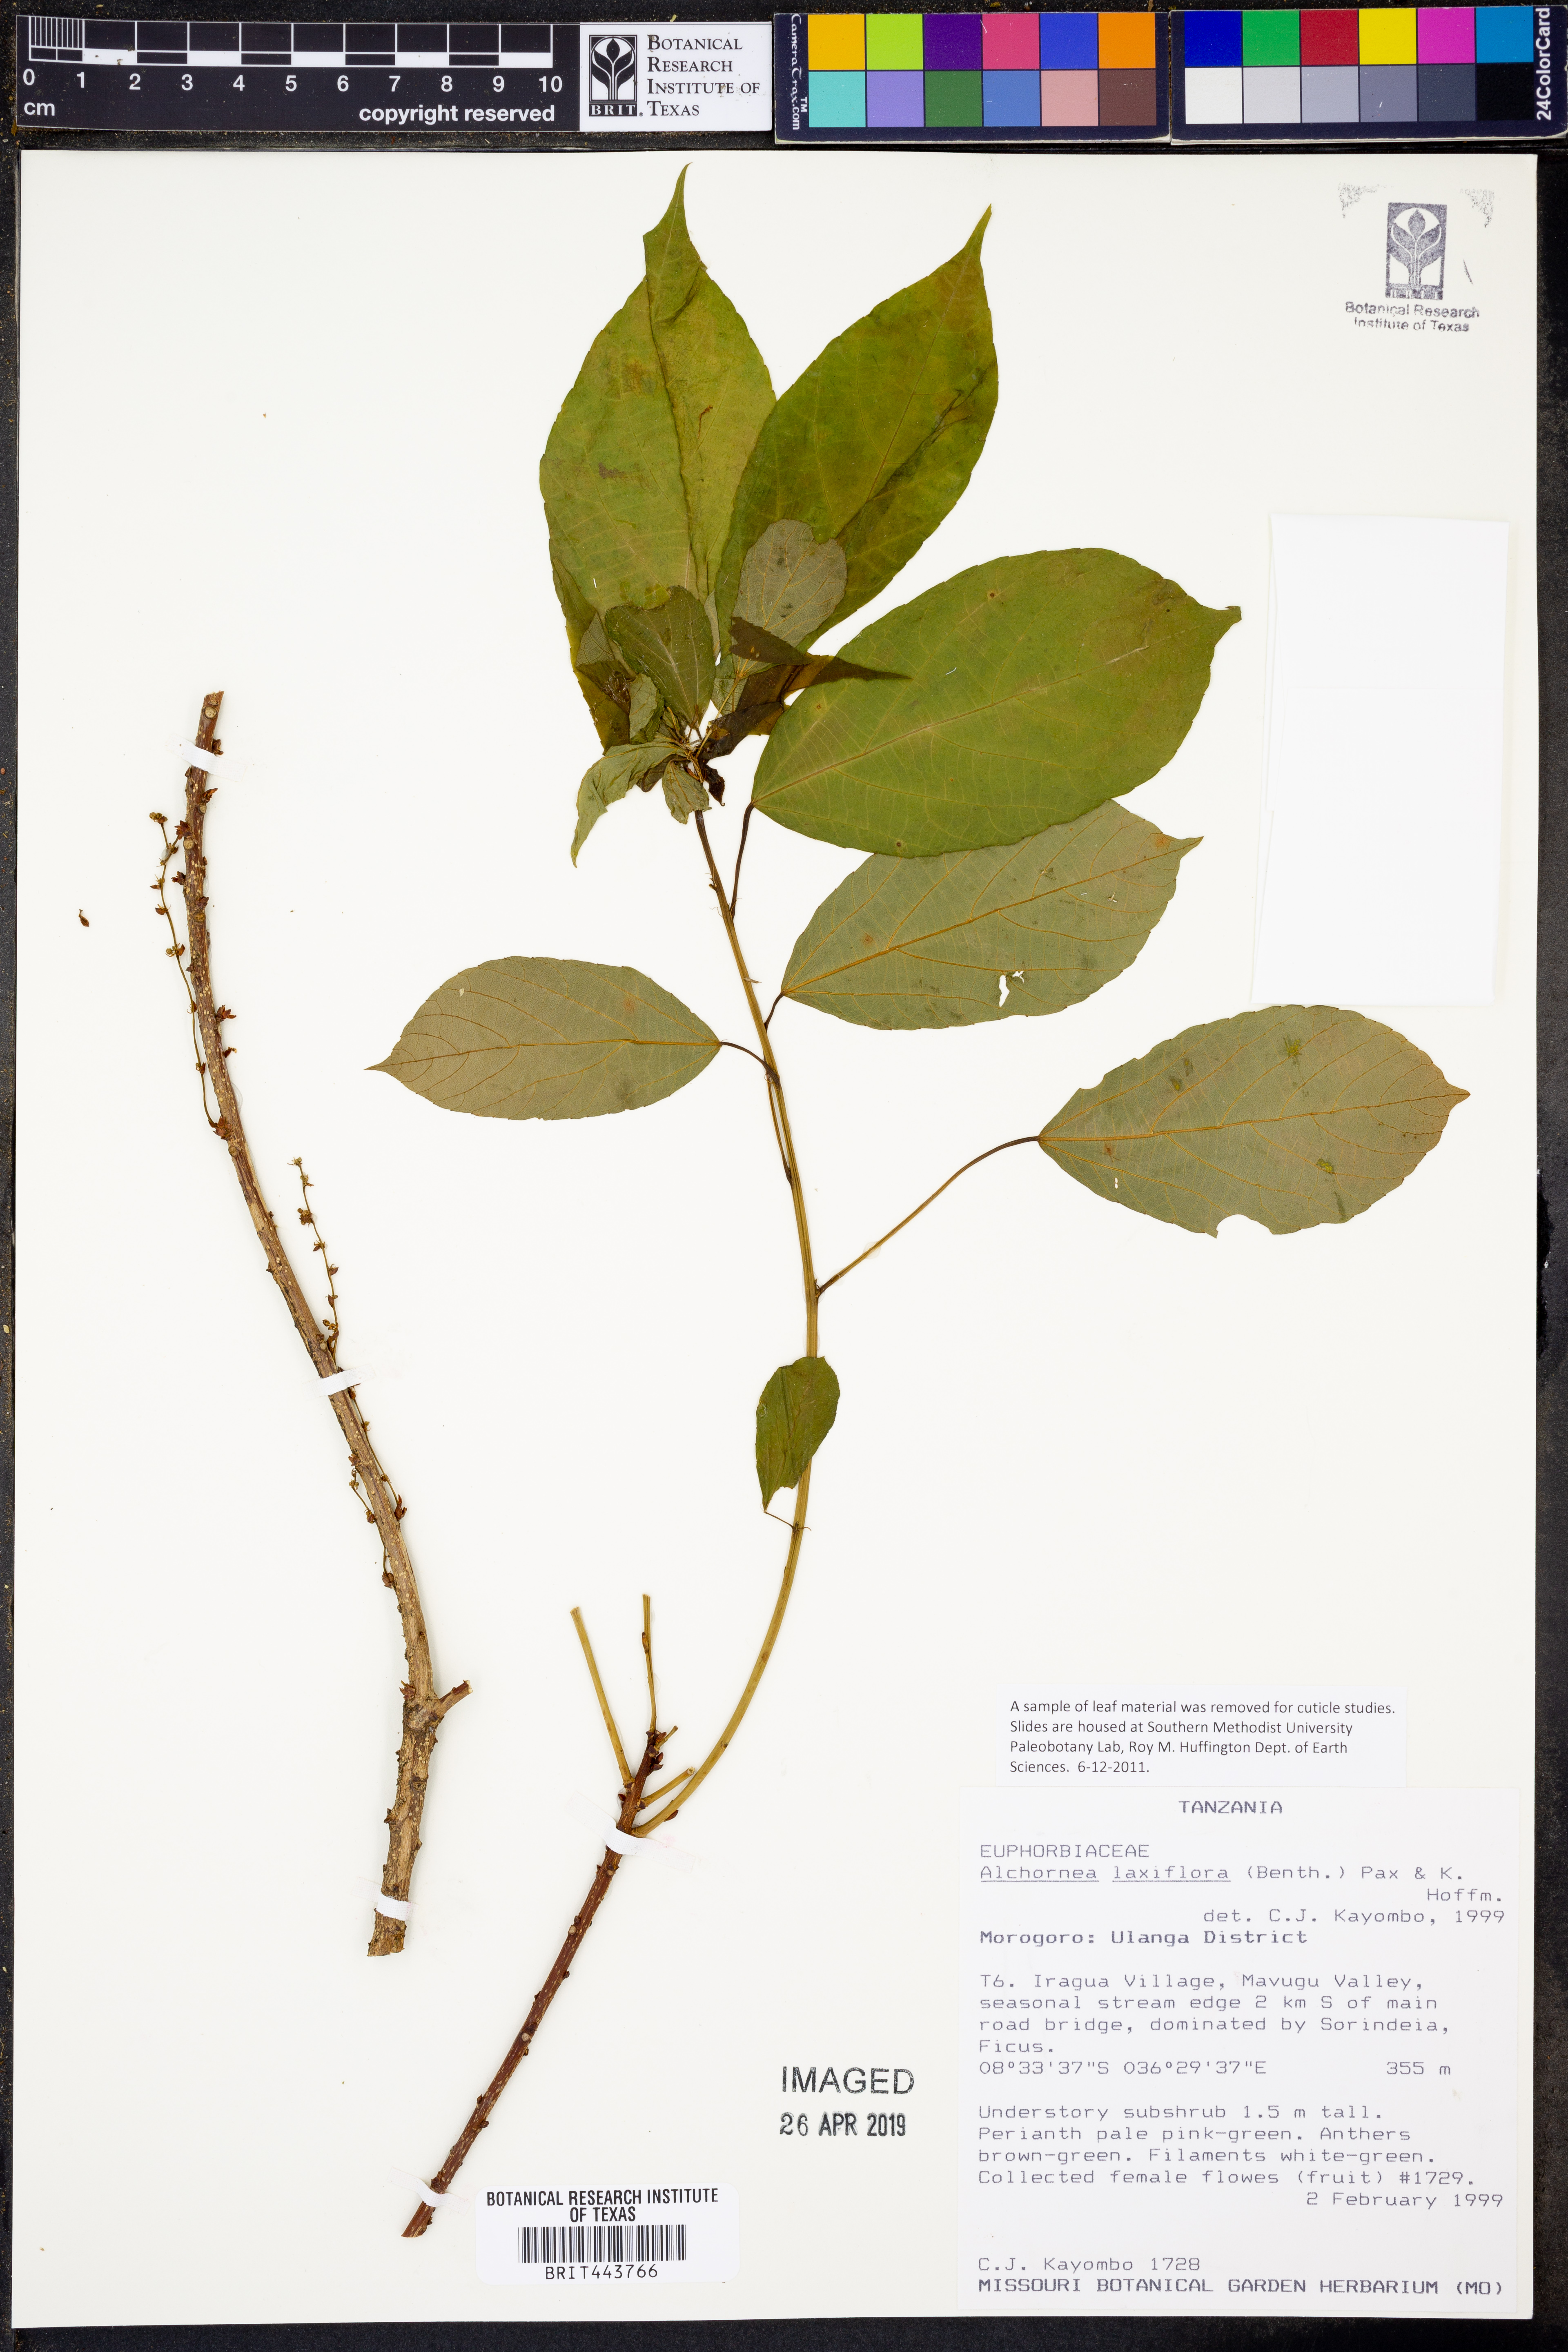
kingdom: Plantae
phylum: Tracheophyta
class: Magnoliopsida
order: Malpighiales
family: Euphorbiaceae
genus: Alchornea
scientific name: Alchornea laxiflora
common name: Lowveld bead-string
